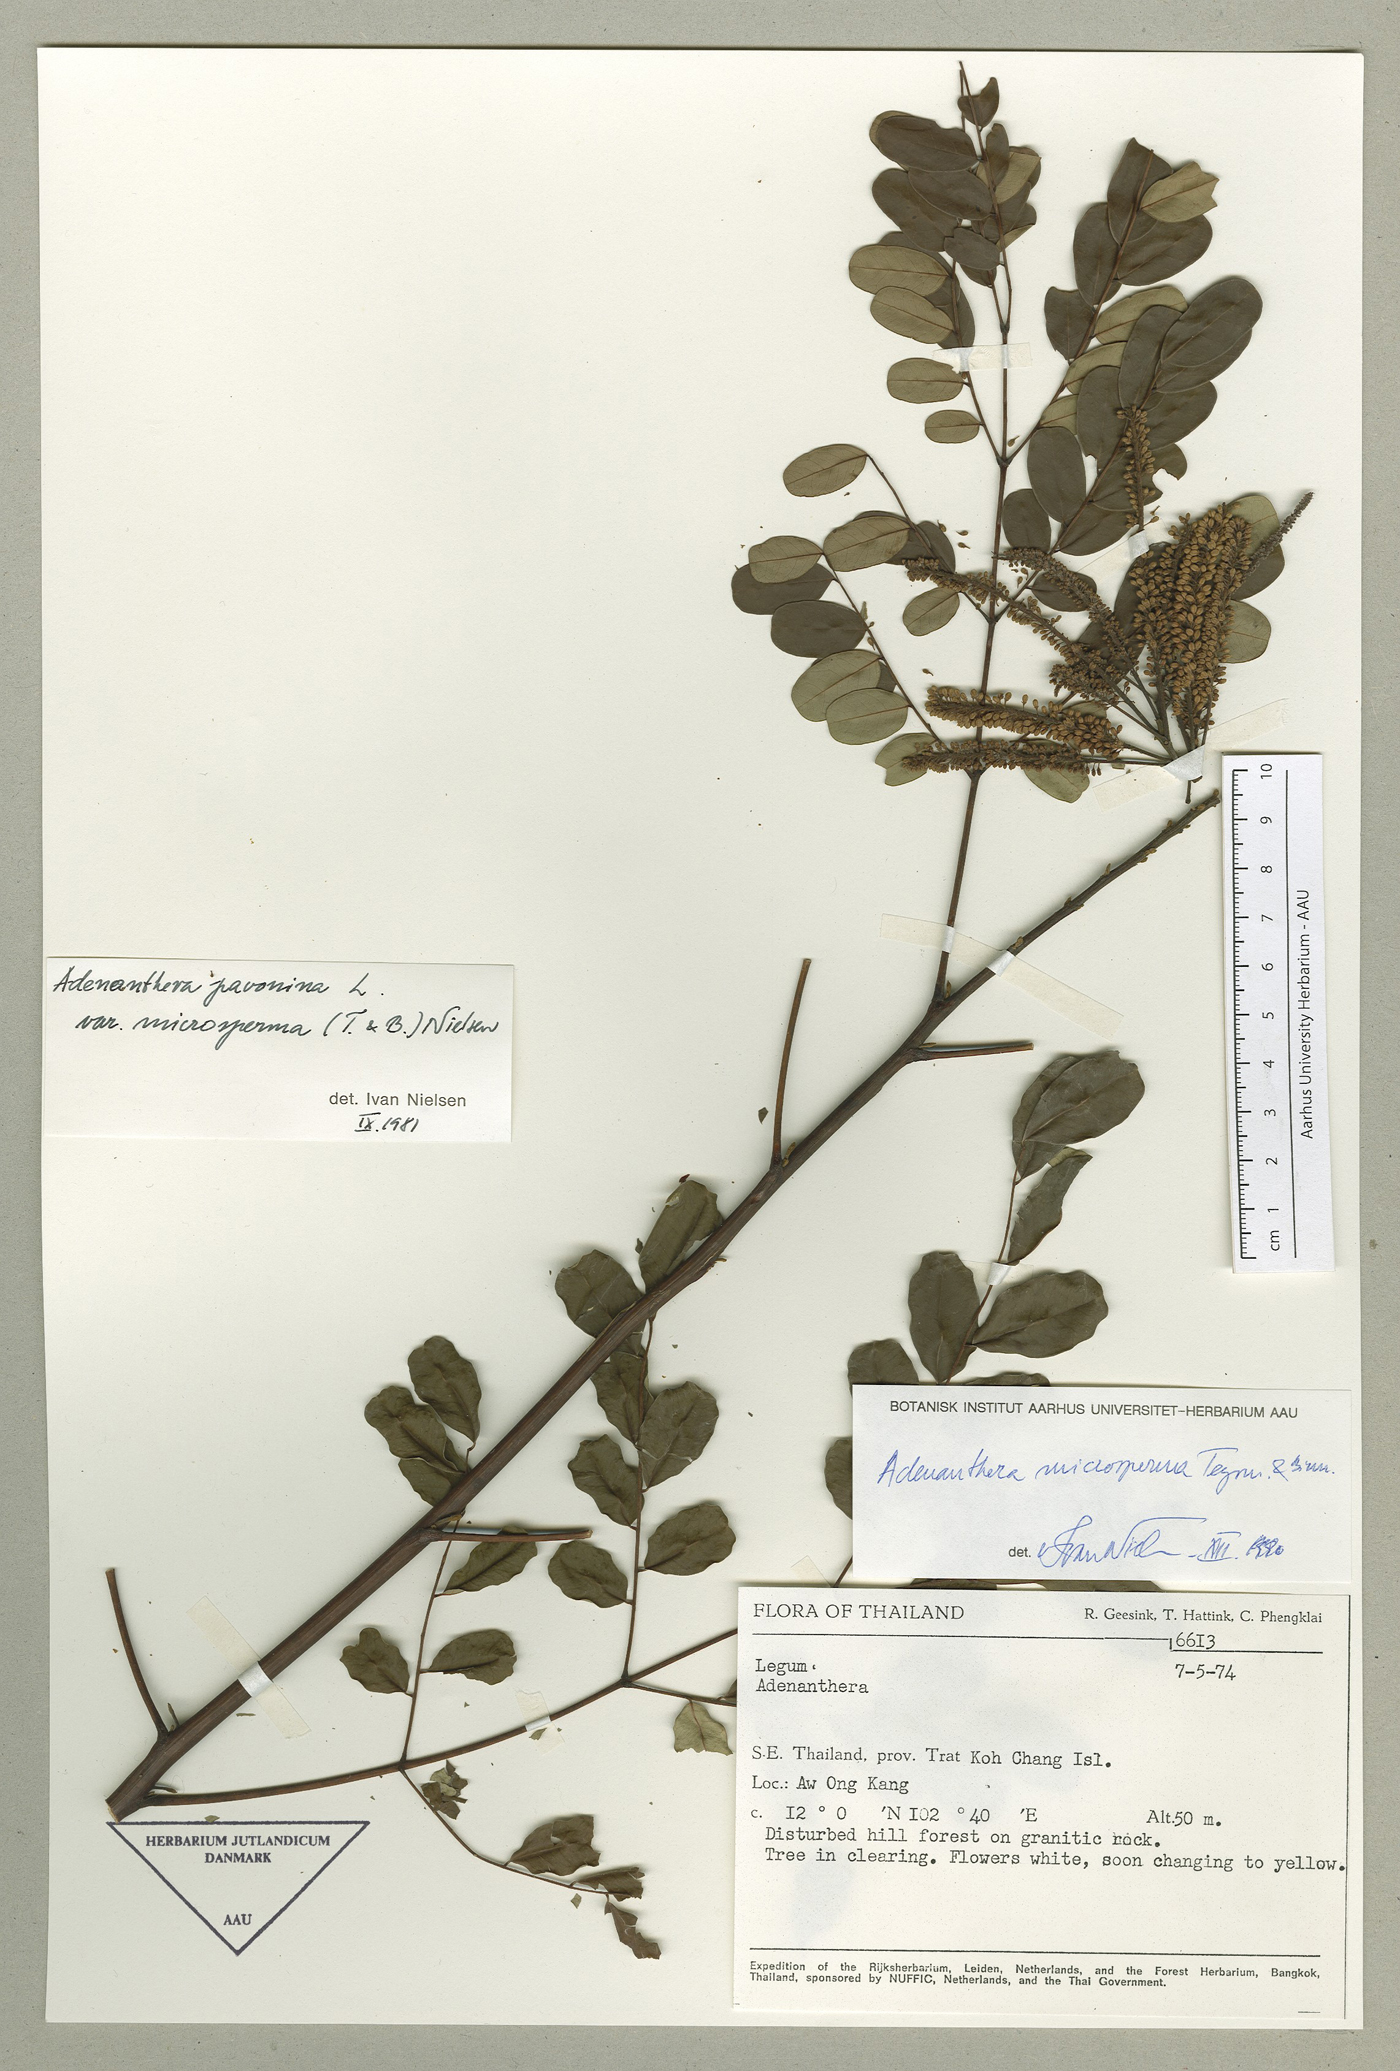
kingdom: Plantae
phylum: Tracheophyta
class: Magnoliopsida
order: Fabales
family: Fabaceae
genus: Adenanthera
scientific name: Adenanthera microsperma
